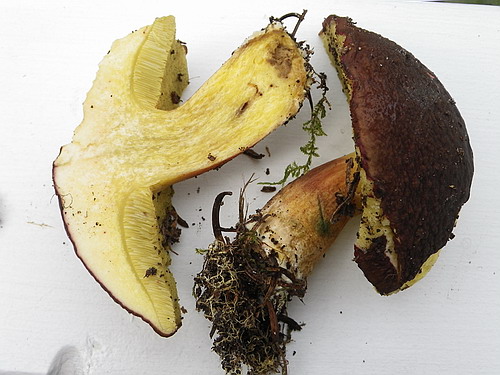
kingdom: Fungi
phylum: Basidiomycota
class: Agaricomycetes
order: Boletales
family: Boletaceae
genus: Xerocomellus
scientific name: Xerocomellus pruinatus
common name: dugget rørhat
